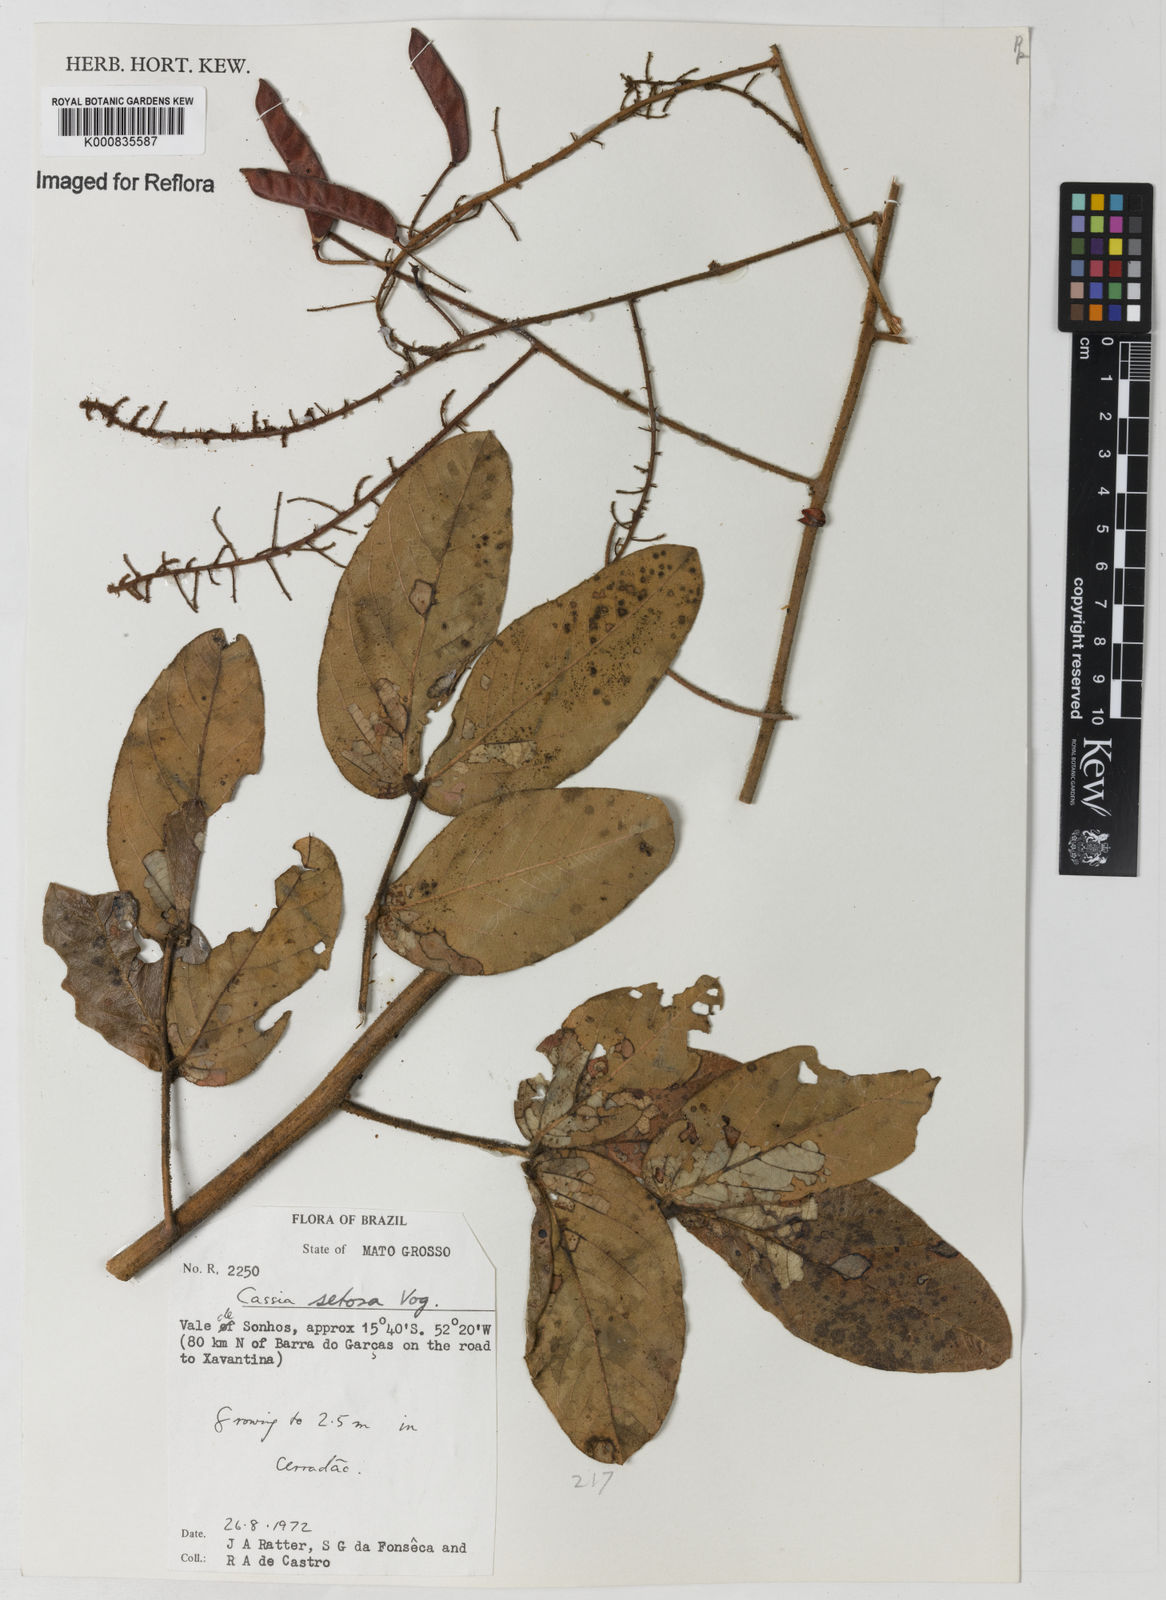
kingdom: Plantae
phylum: Tracheophyta
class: Magnoliopsida
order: Fabales
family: Fabaceae
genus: Chamaecrista
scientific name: Chamaecrista setosa
